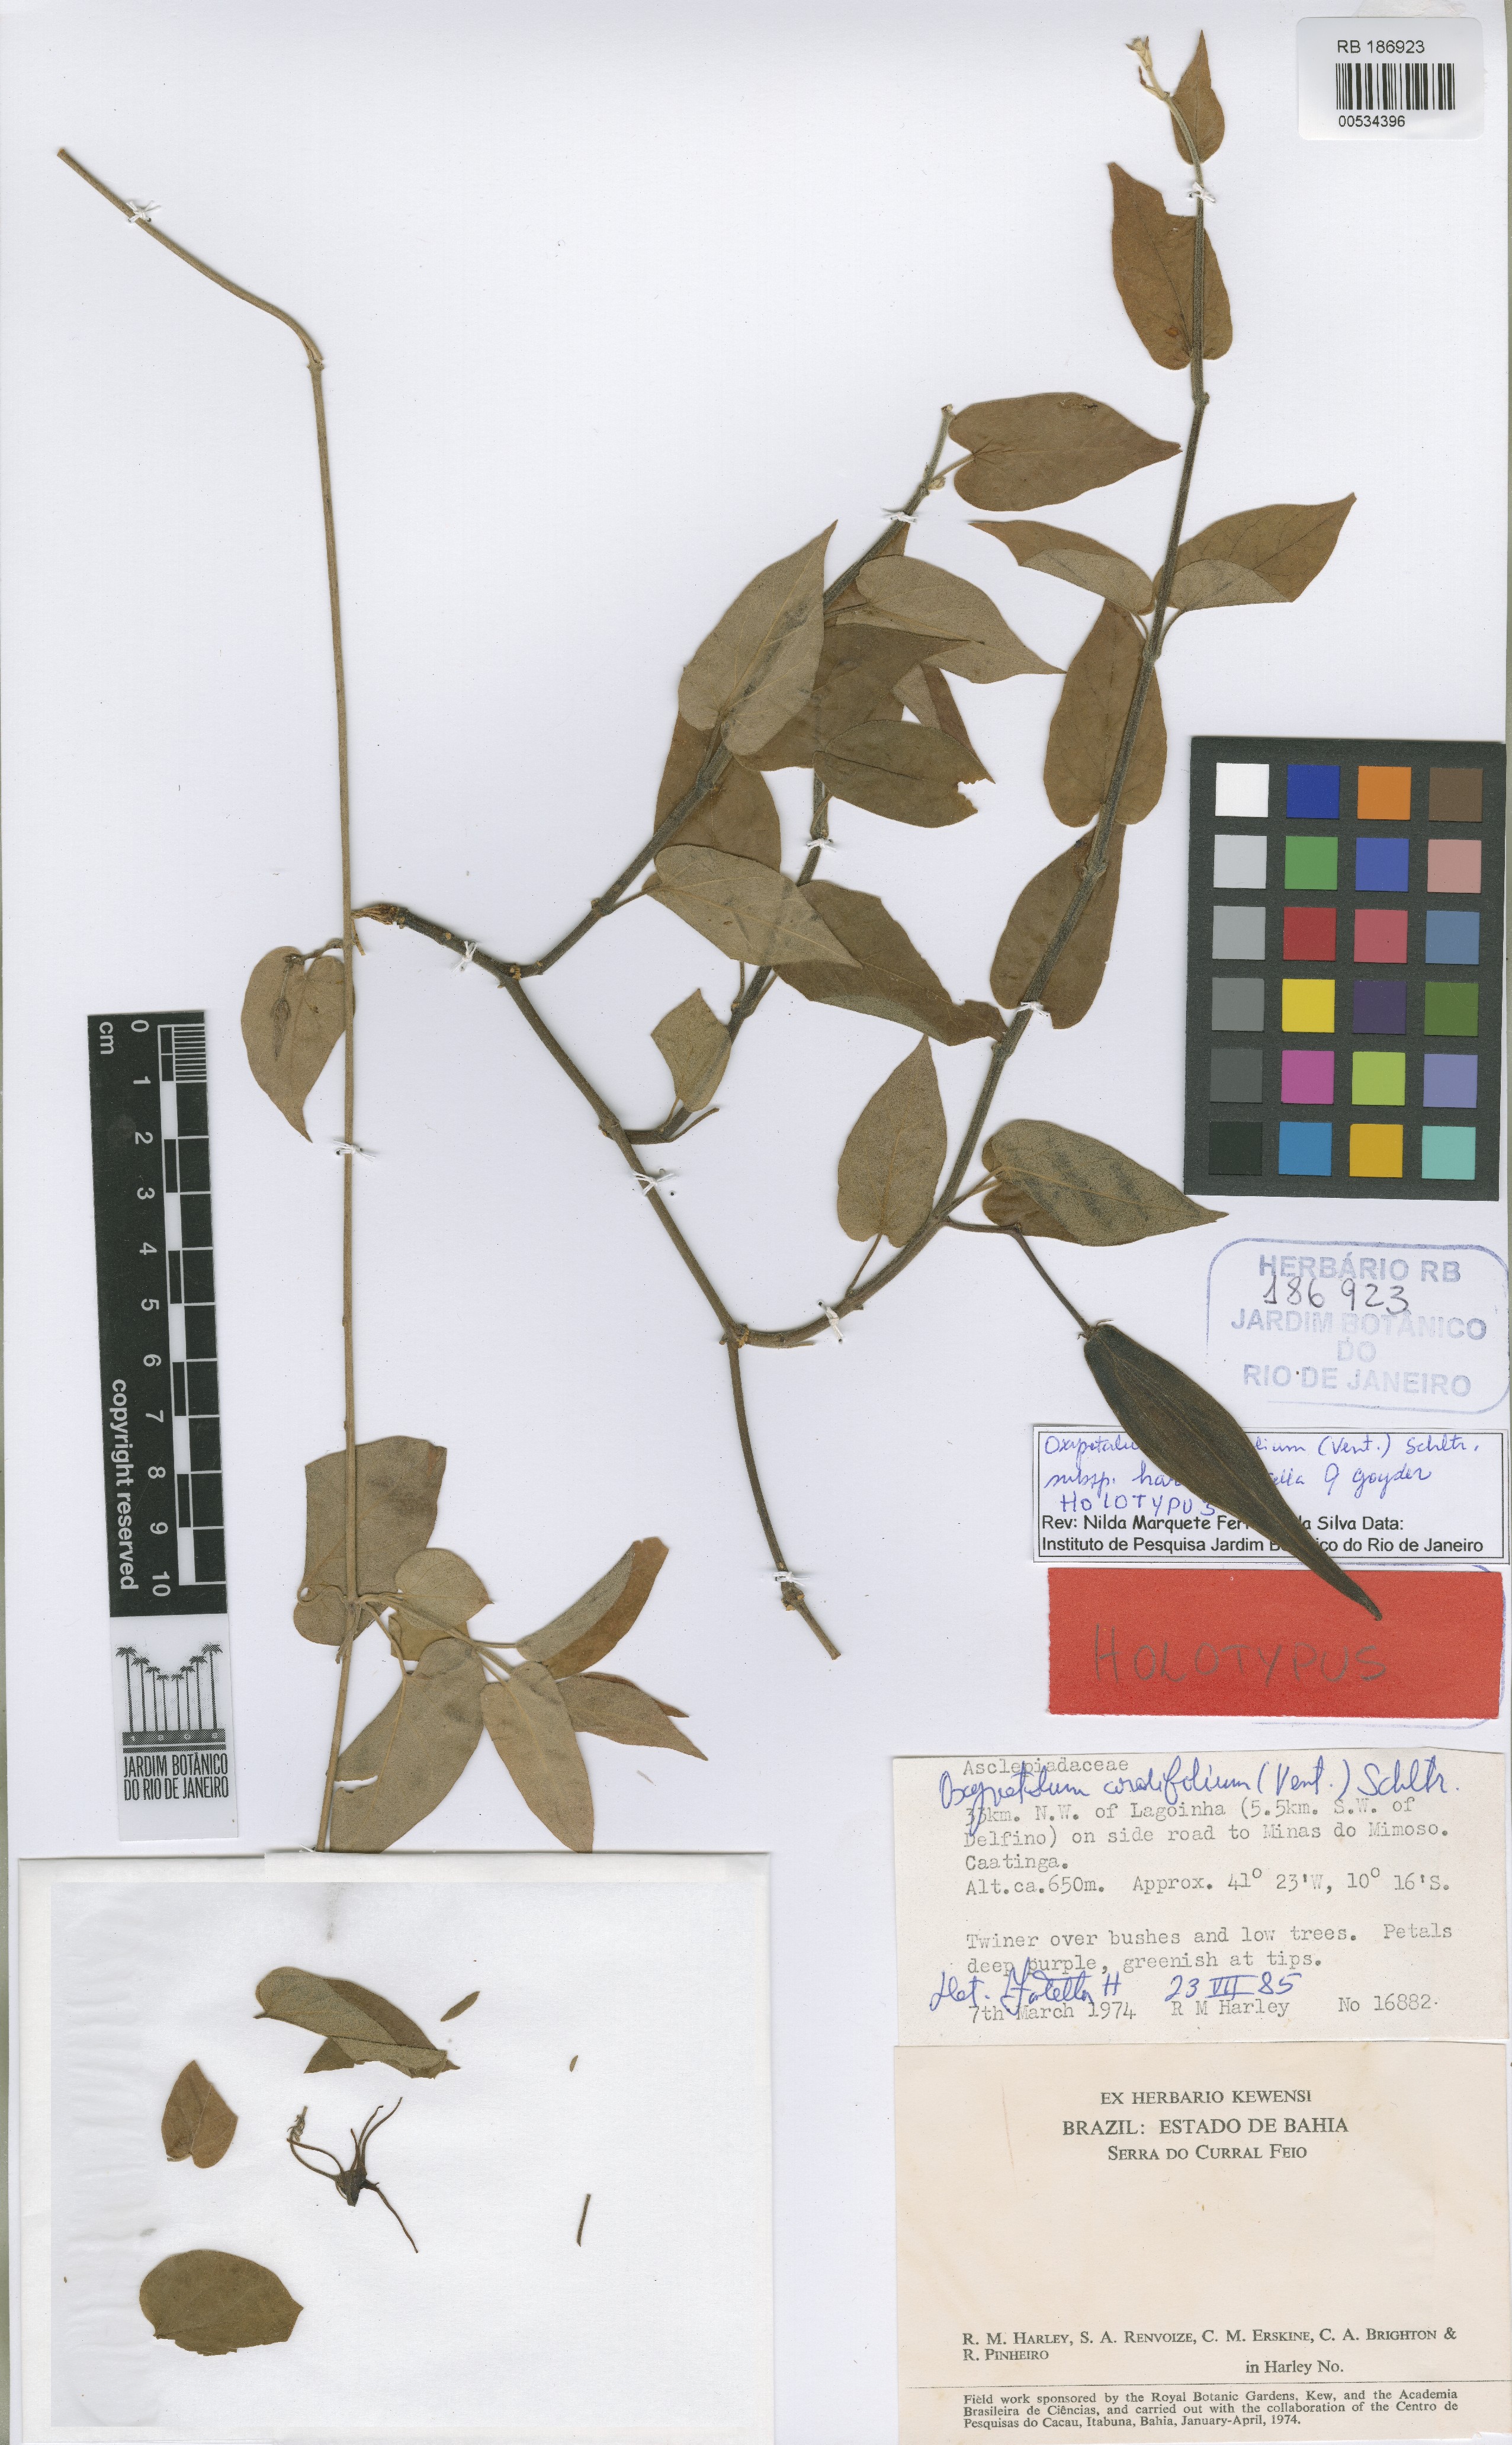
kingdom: Plantae
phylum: Tracheophyta
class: Magnoliopsida
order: Gentianales
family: Apocynaceae
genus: Oxypetalum
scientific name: Oxypetalum harleyi
